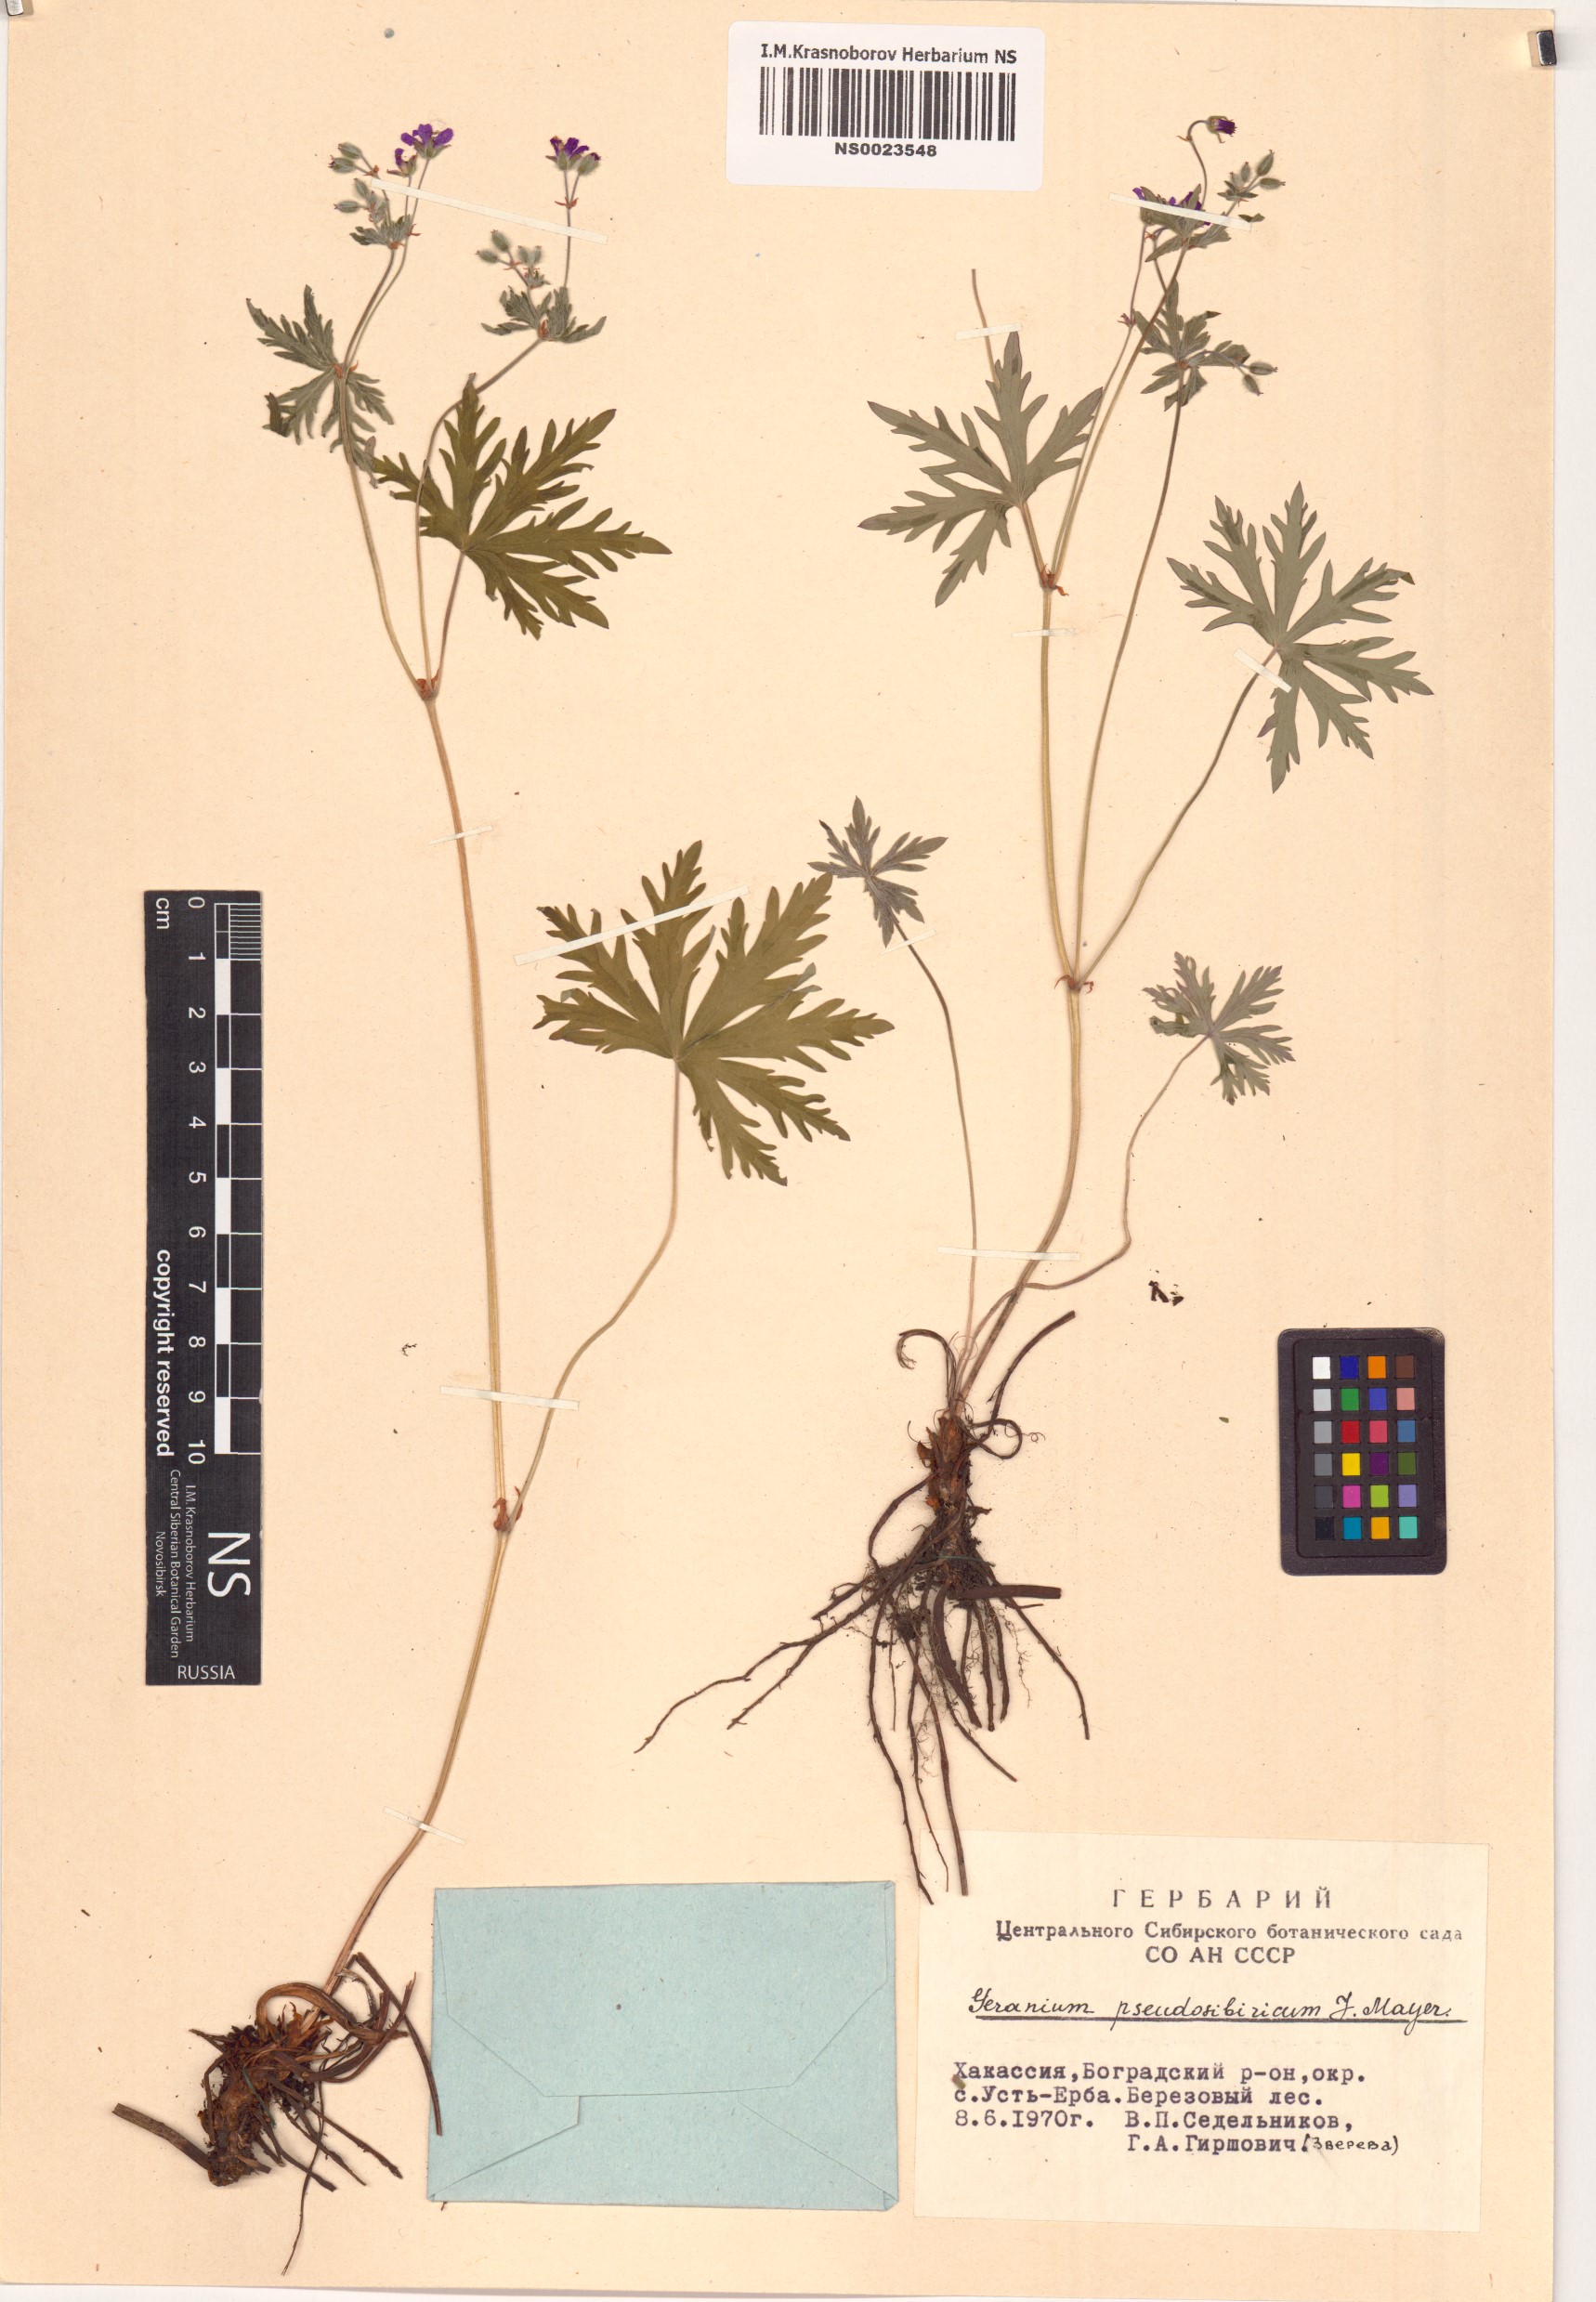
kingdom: Plantae
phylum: Tracheophyta
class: Magnoliopsida
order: Geraniales
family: Geraniaceae
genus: Geranium
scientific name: Geranium pseudosibiricum
